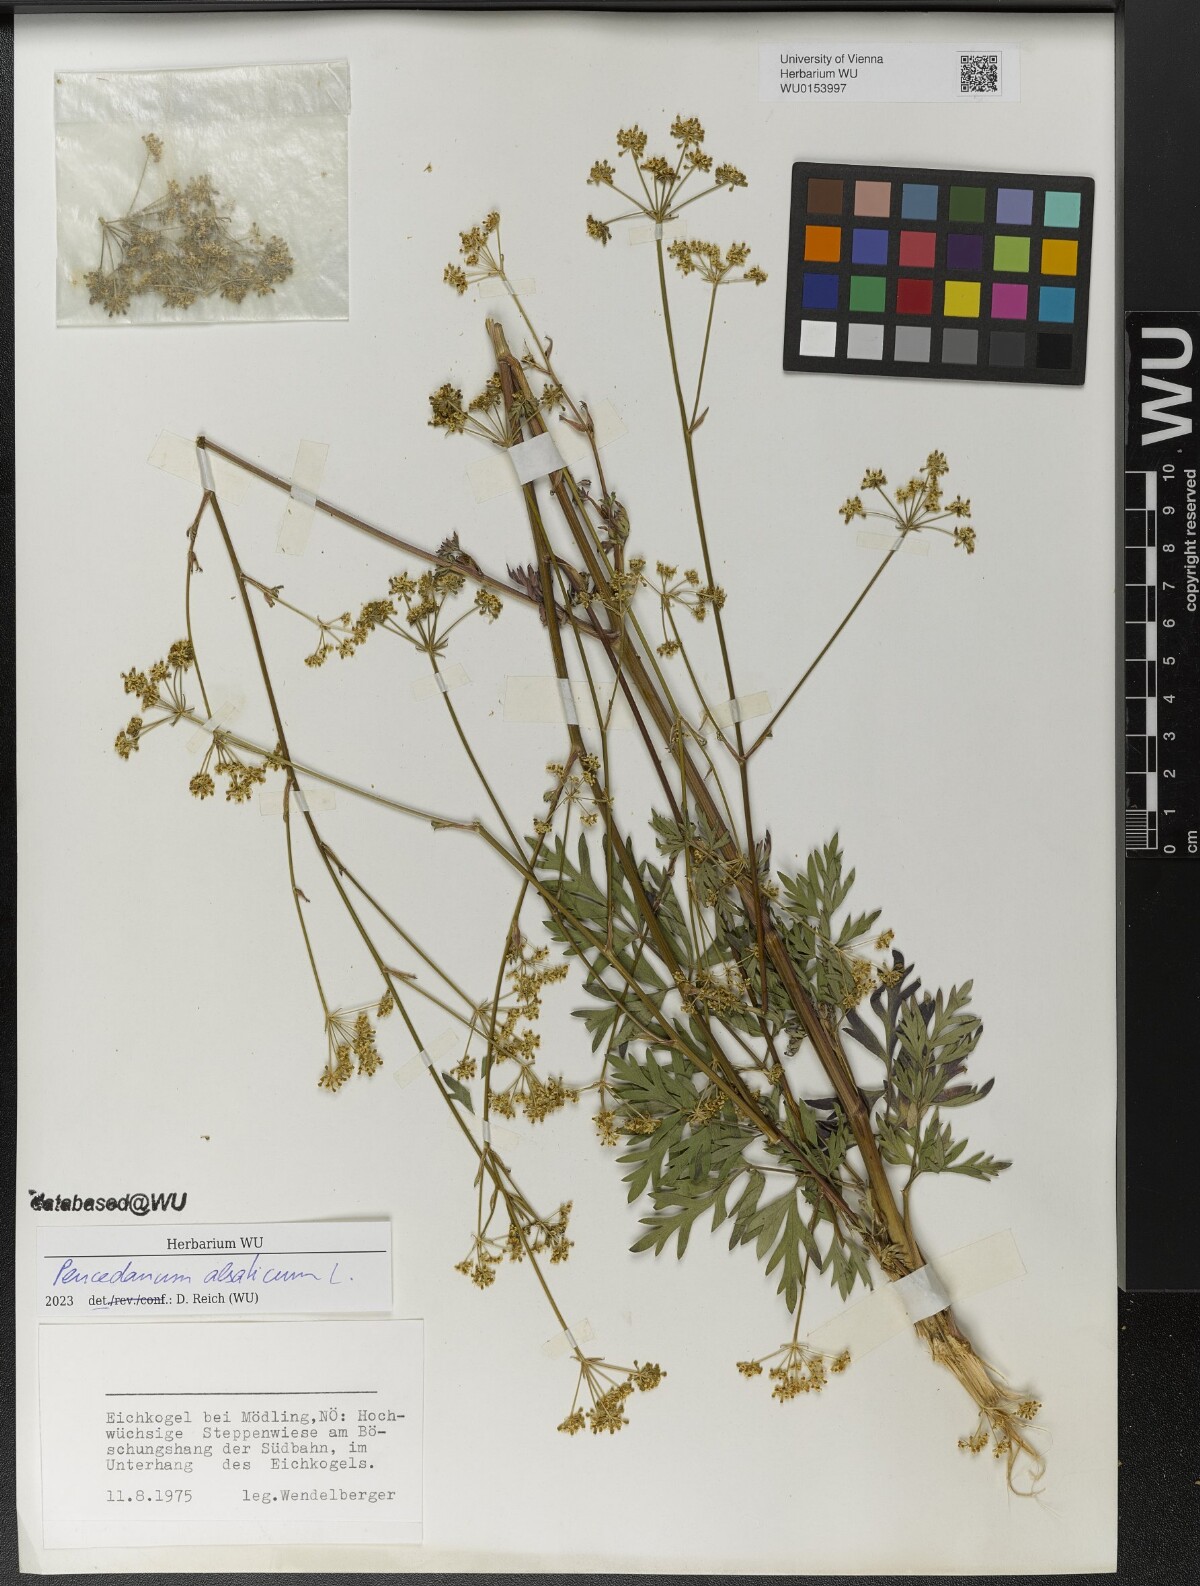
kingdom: Plantae
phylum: Tracheophyta
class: Magnoliopsida
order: Apiales
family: Apiaceae
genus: Xanthoselinum
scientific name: Xanthoselinum alsaticum
